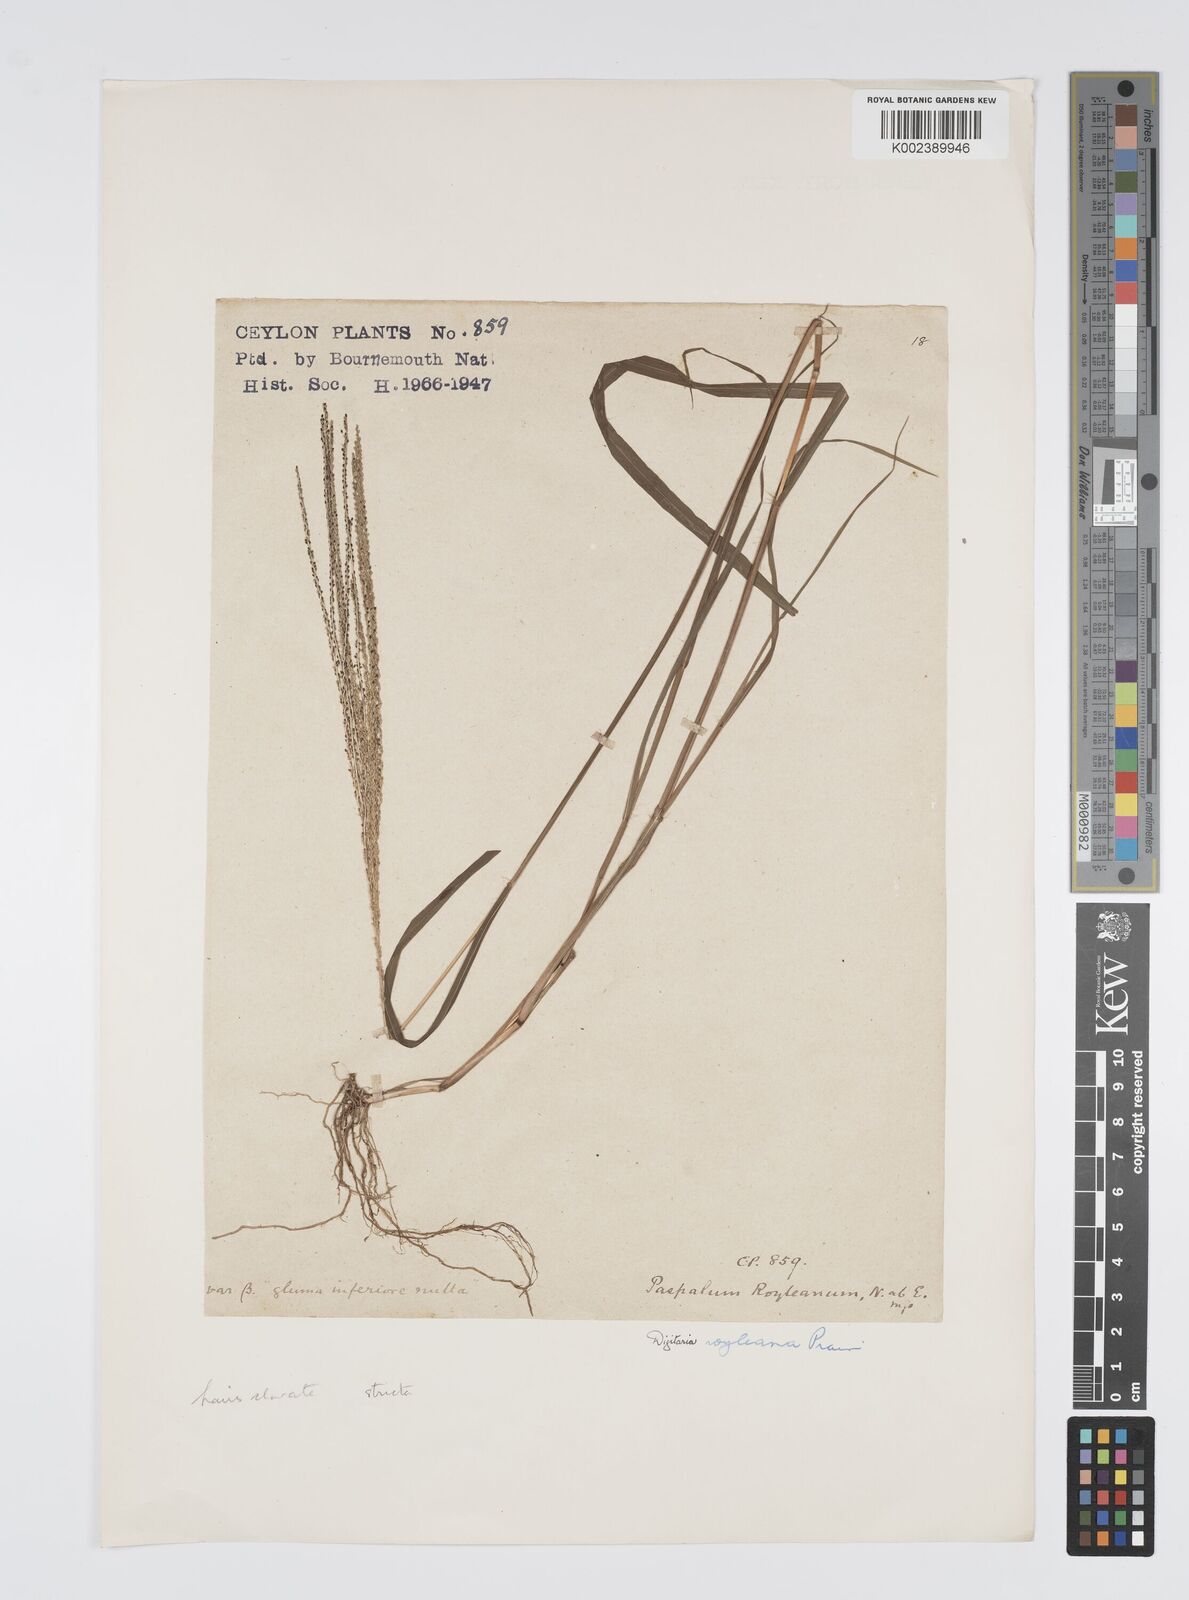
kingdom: Plantae
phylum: Tracheophyta
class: Liliopsida
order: Poales
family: Poaceae
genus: Digitaria
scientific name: Digitaria stricta
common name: Crabgrass
